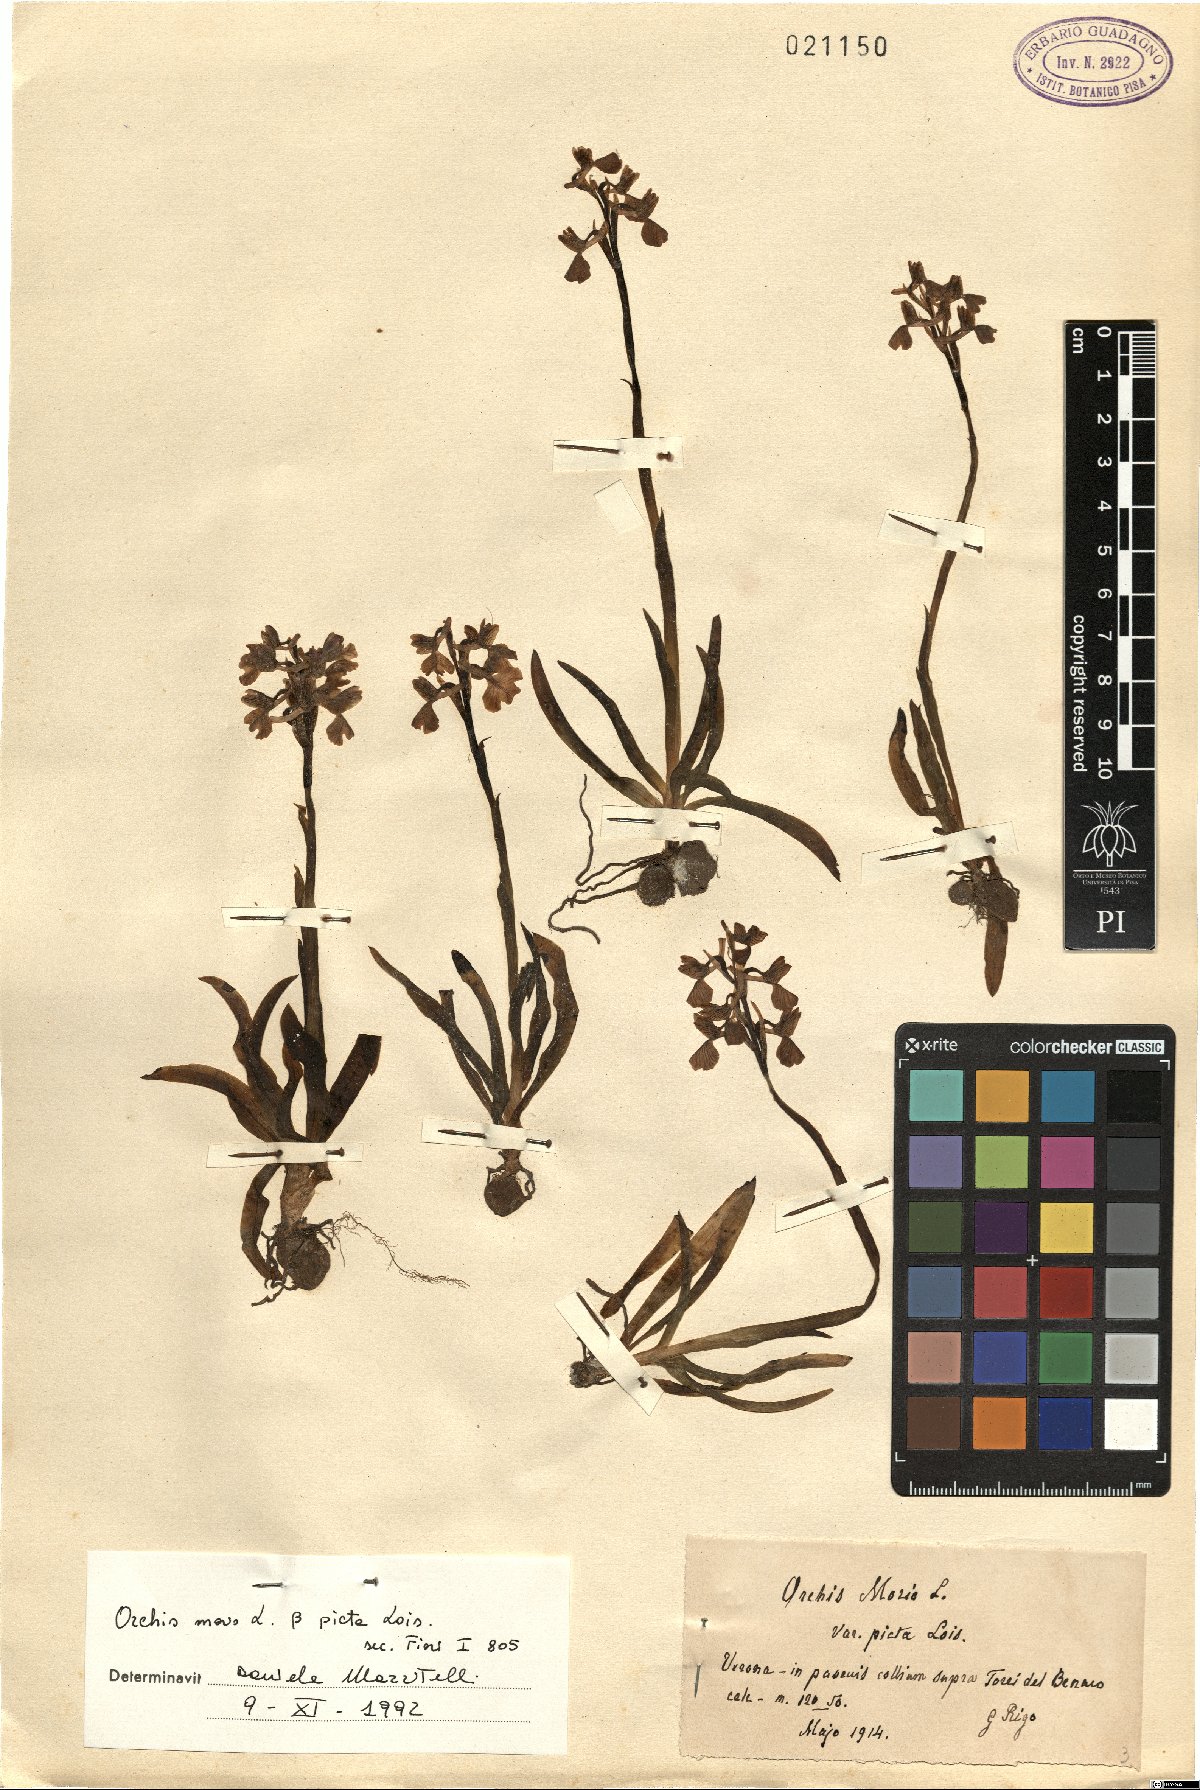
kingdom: Plantae
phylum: Tracheophyta
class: Liliopsida
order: Asparagales
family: Orchidaceae
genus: Anacamptis
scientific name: Anacamptis morio
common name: Green-winged orchid
